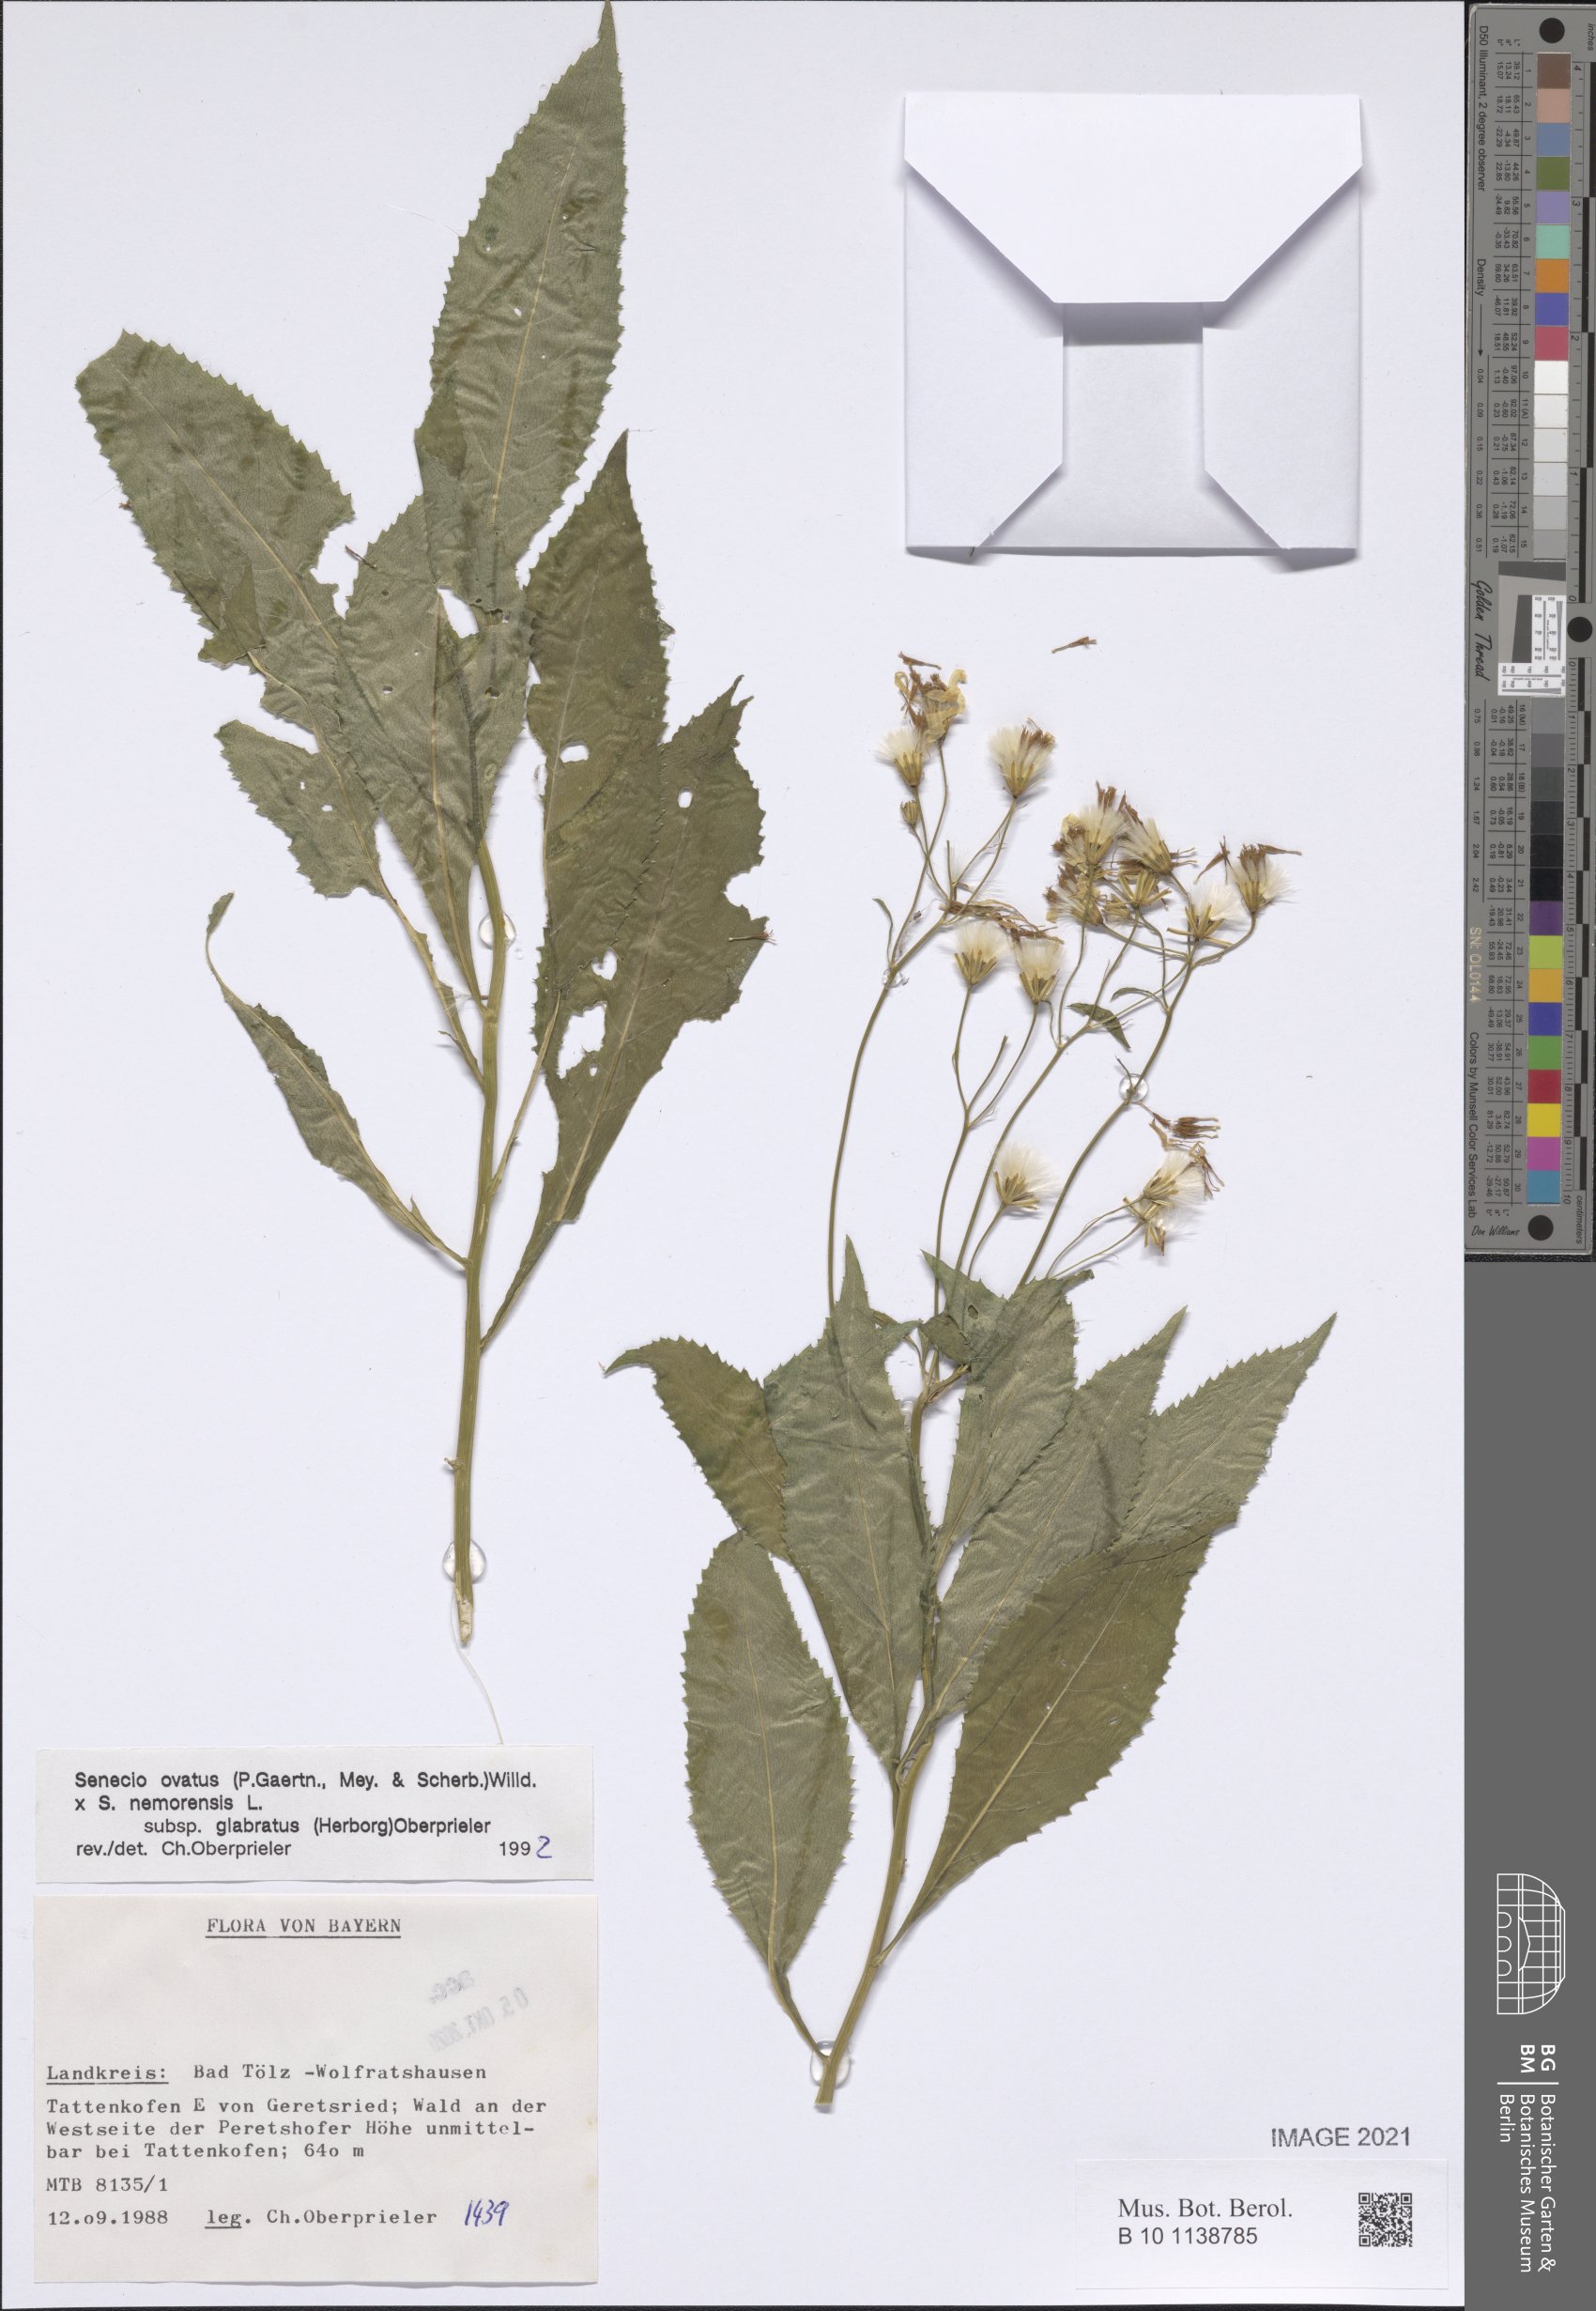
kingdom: Plantae
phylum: Tracheophyta
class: Magnoliopsida
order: Asterales
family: Asteraceae
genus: Senecio
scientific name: Senecio ovatus
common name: Wood ragwort
